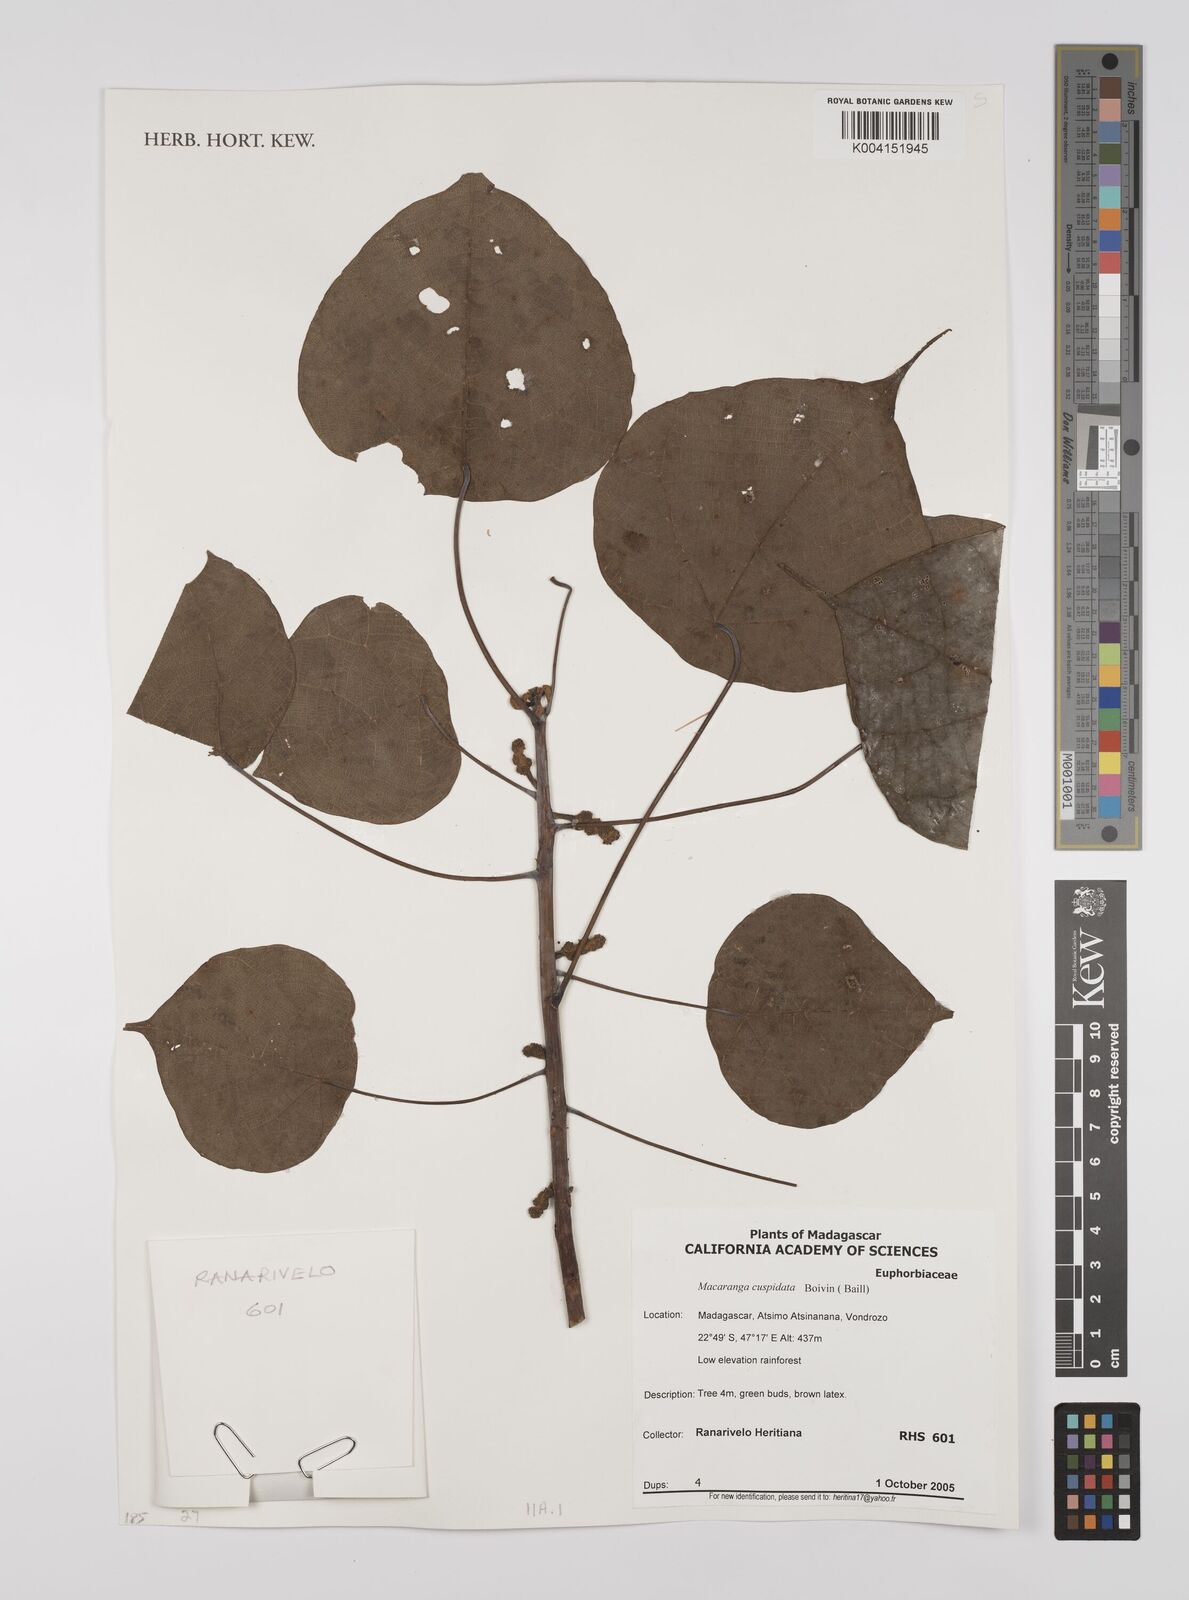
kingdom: Plantae
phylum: Tracheophyta
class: Magnoliopsida
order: Malpighiales
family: Euphorbiaceae
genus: Macaranga
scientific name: Macaranga cuspidata
